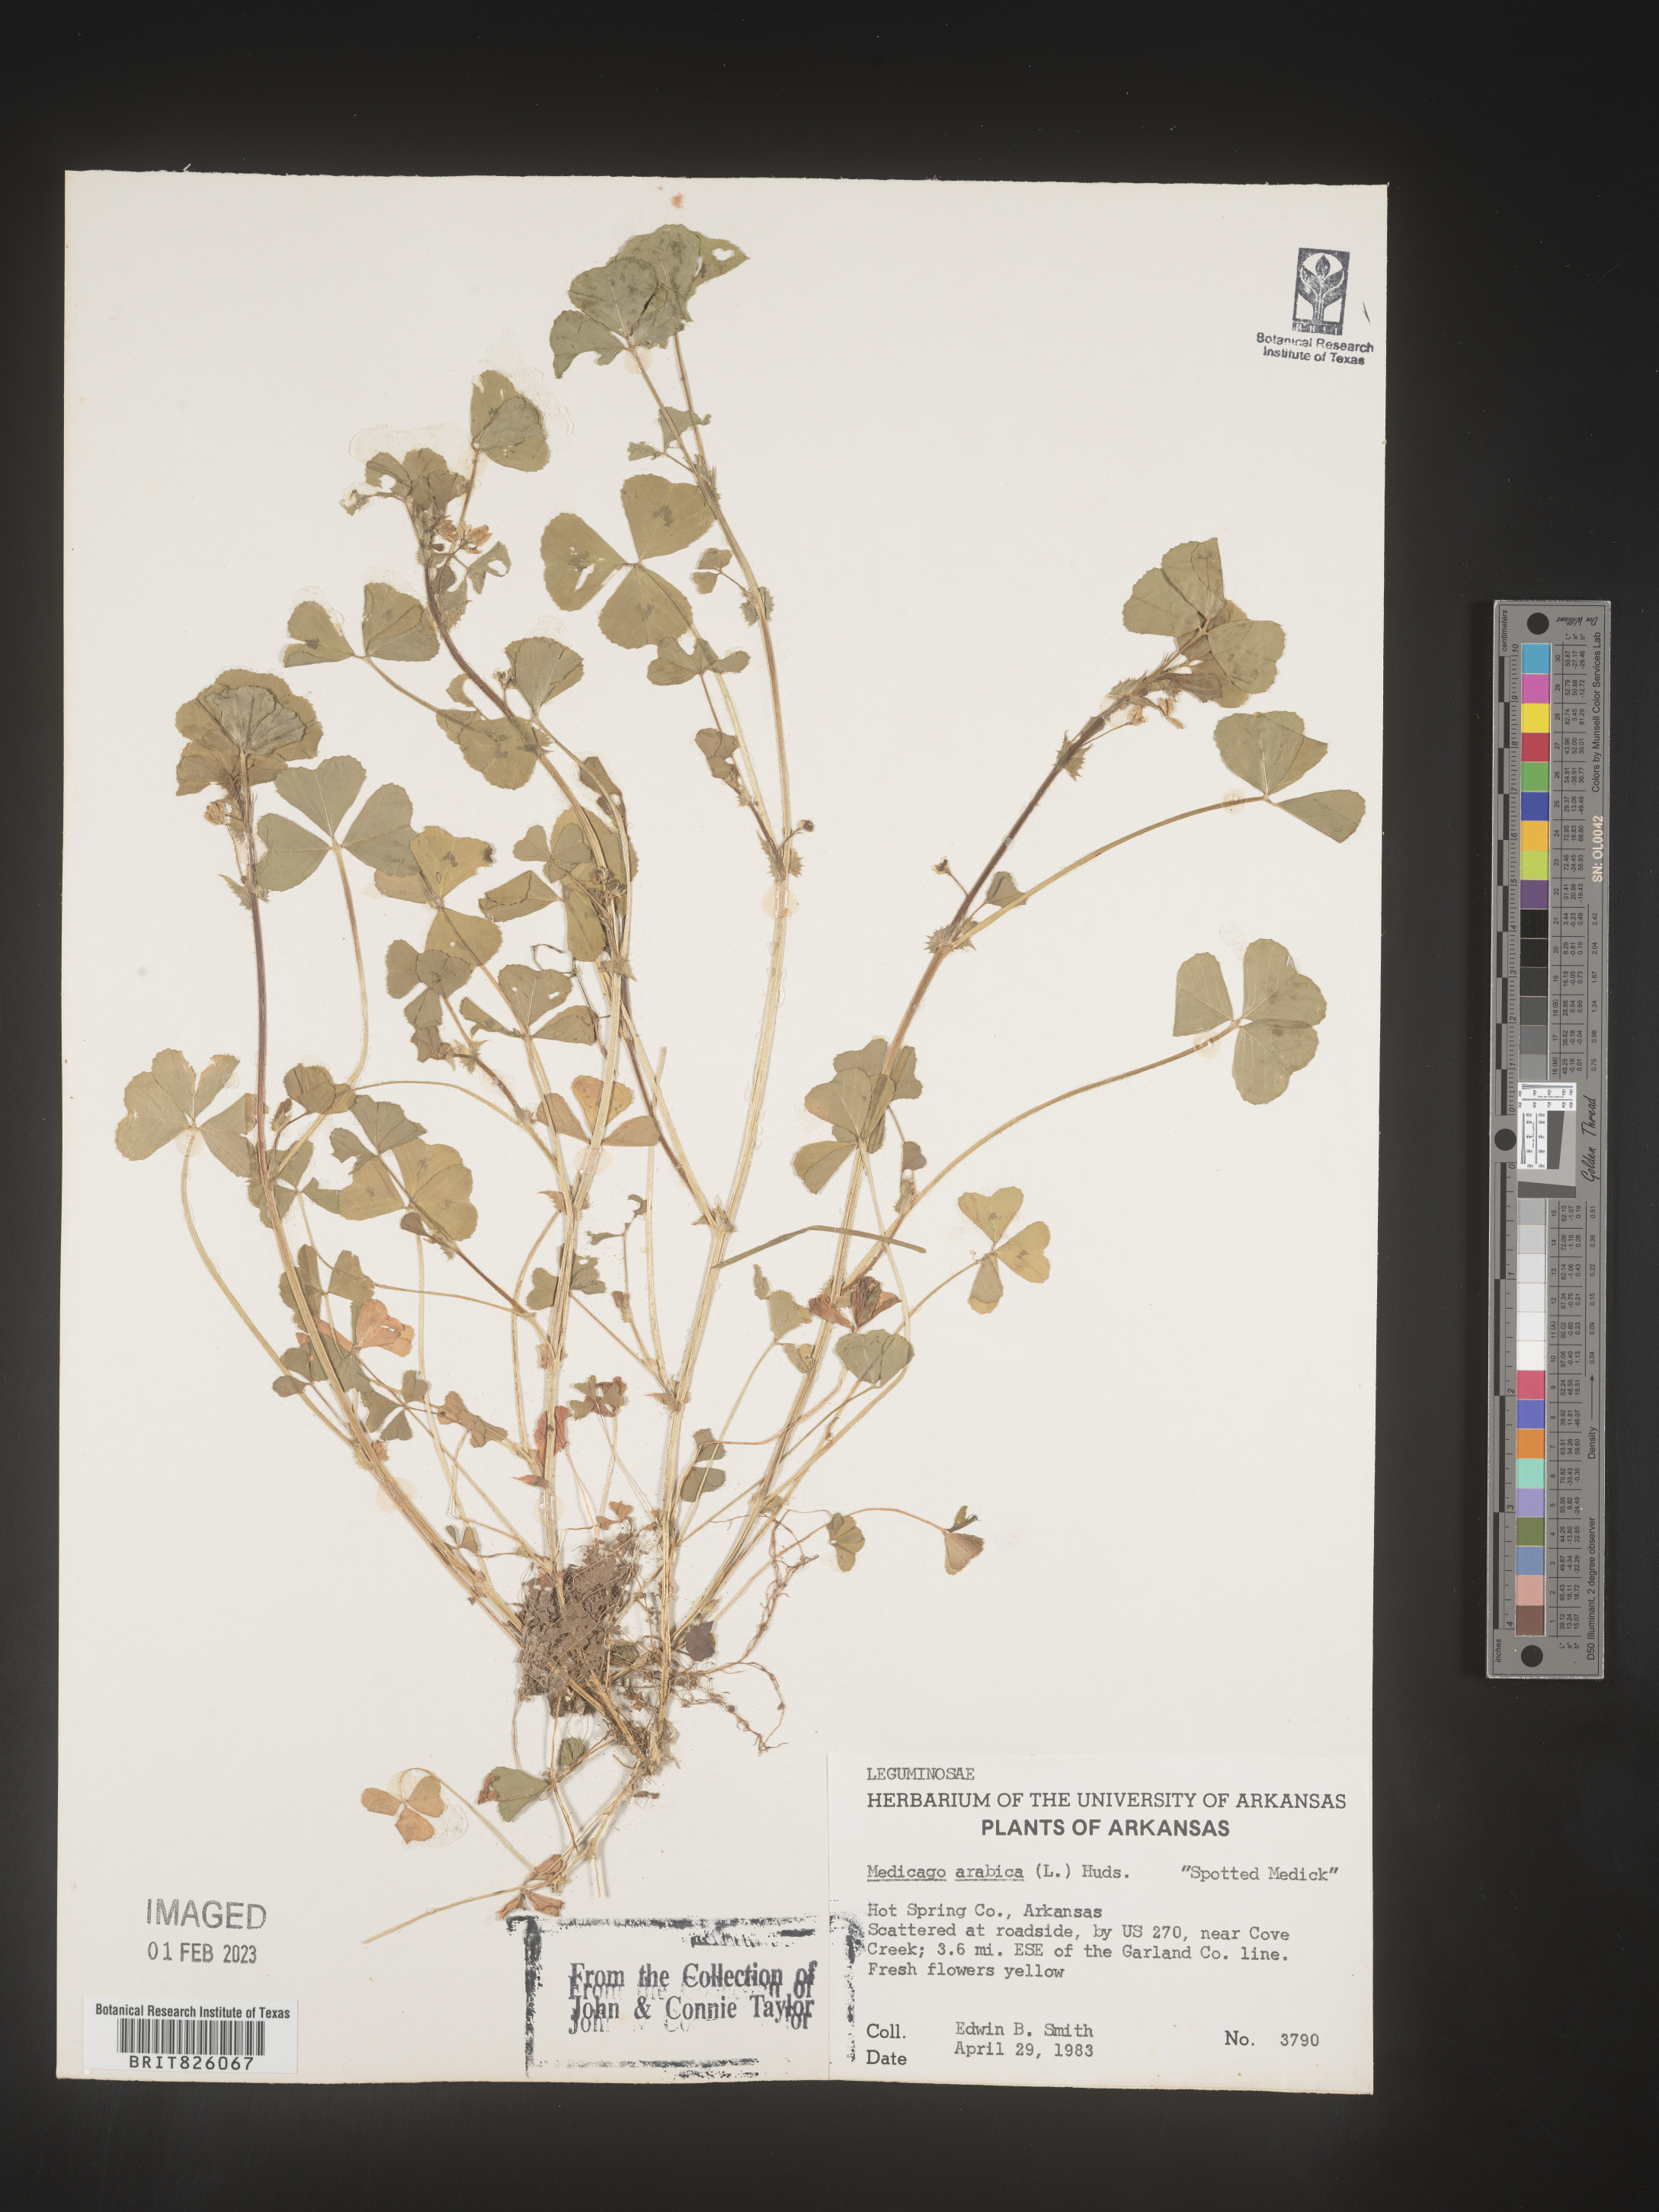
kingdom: Plantae
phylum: Tracheophyta
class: Magnoliopsida
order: Fabales
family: Fabaceae
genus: Medicago
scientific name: Medicago arabica
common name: Spotted medick
